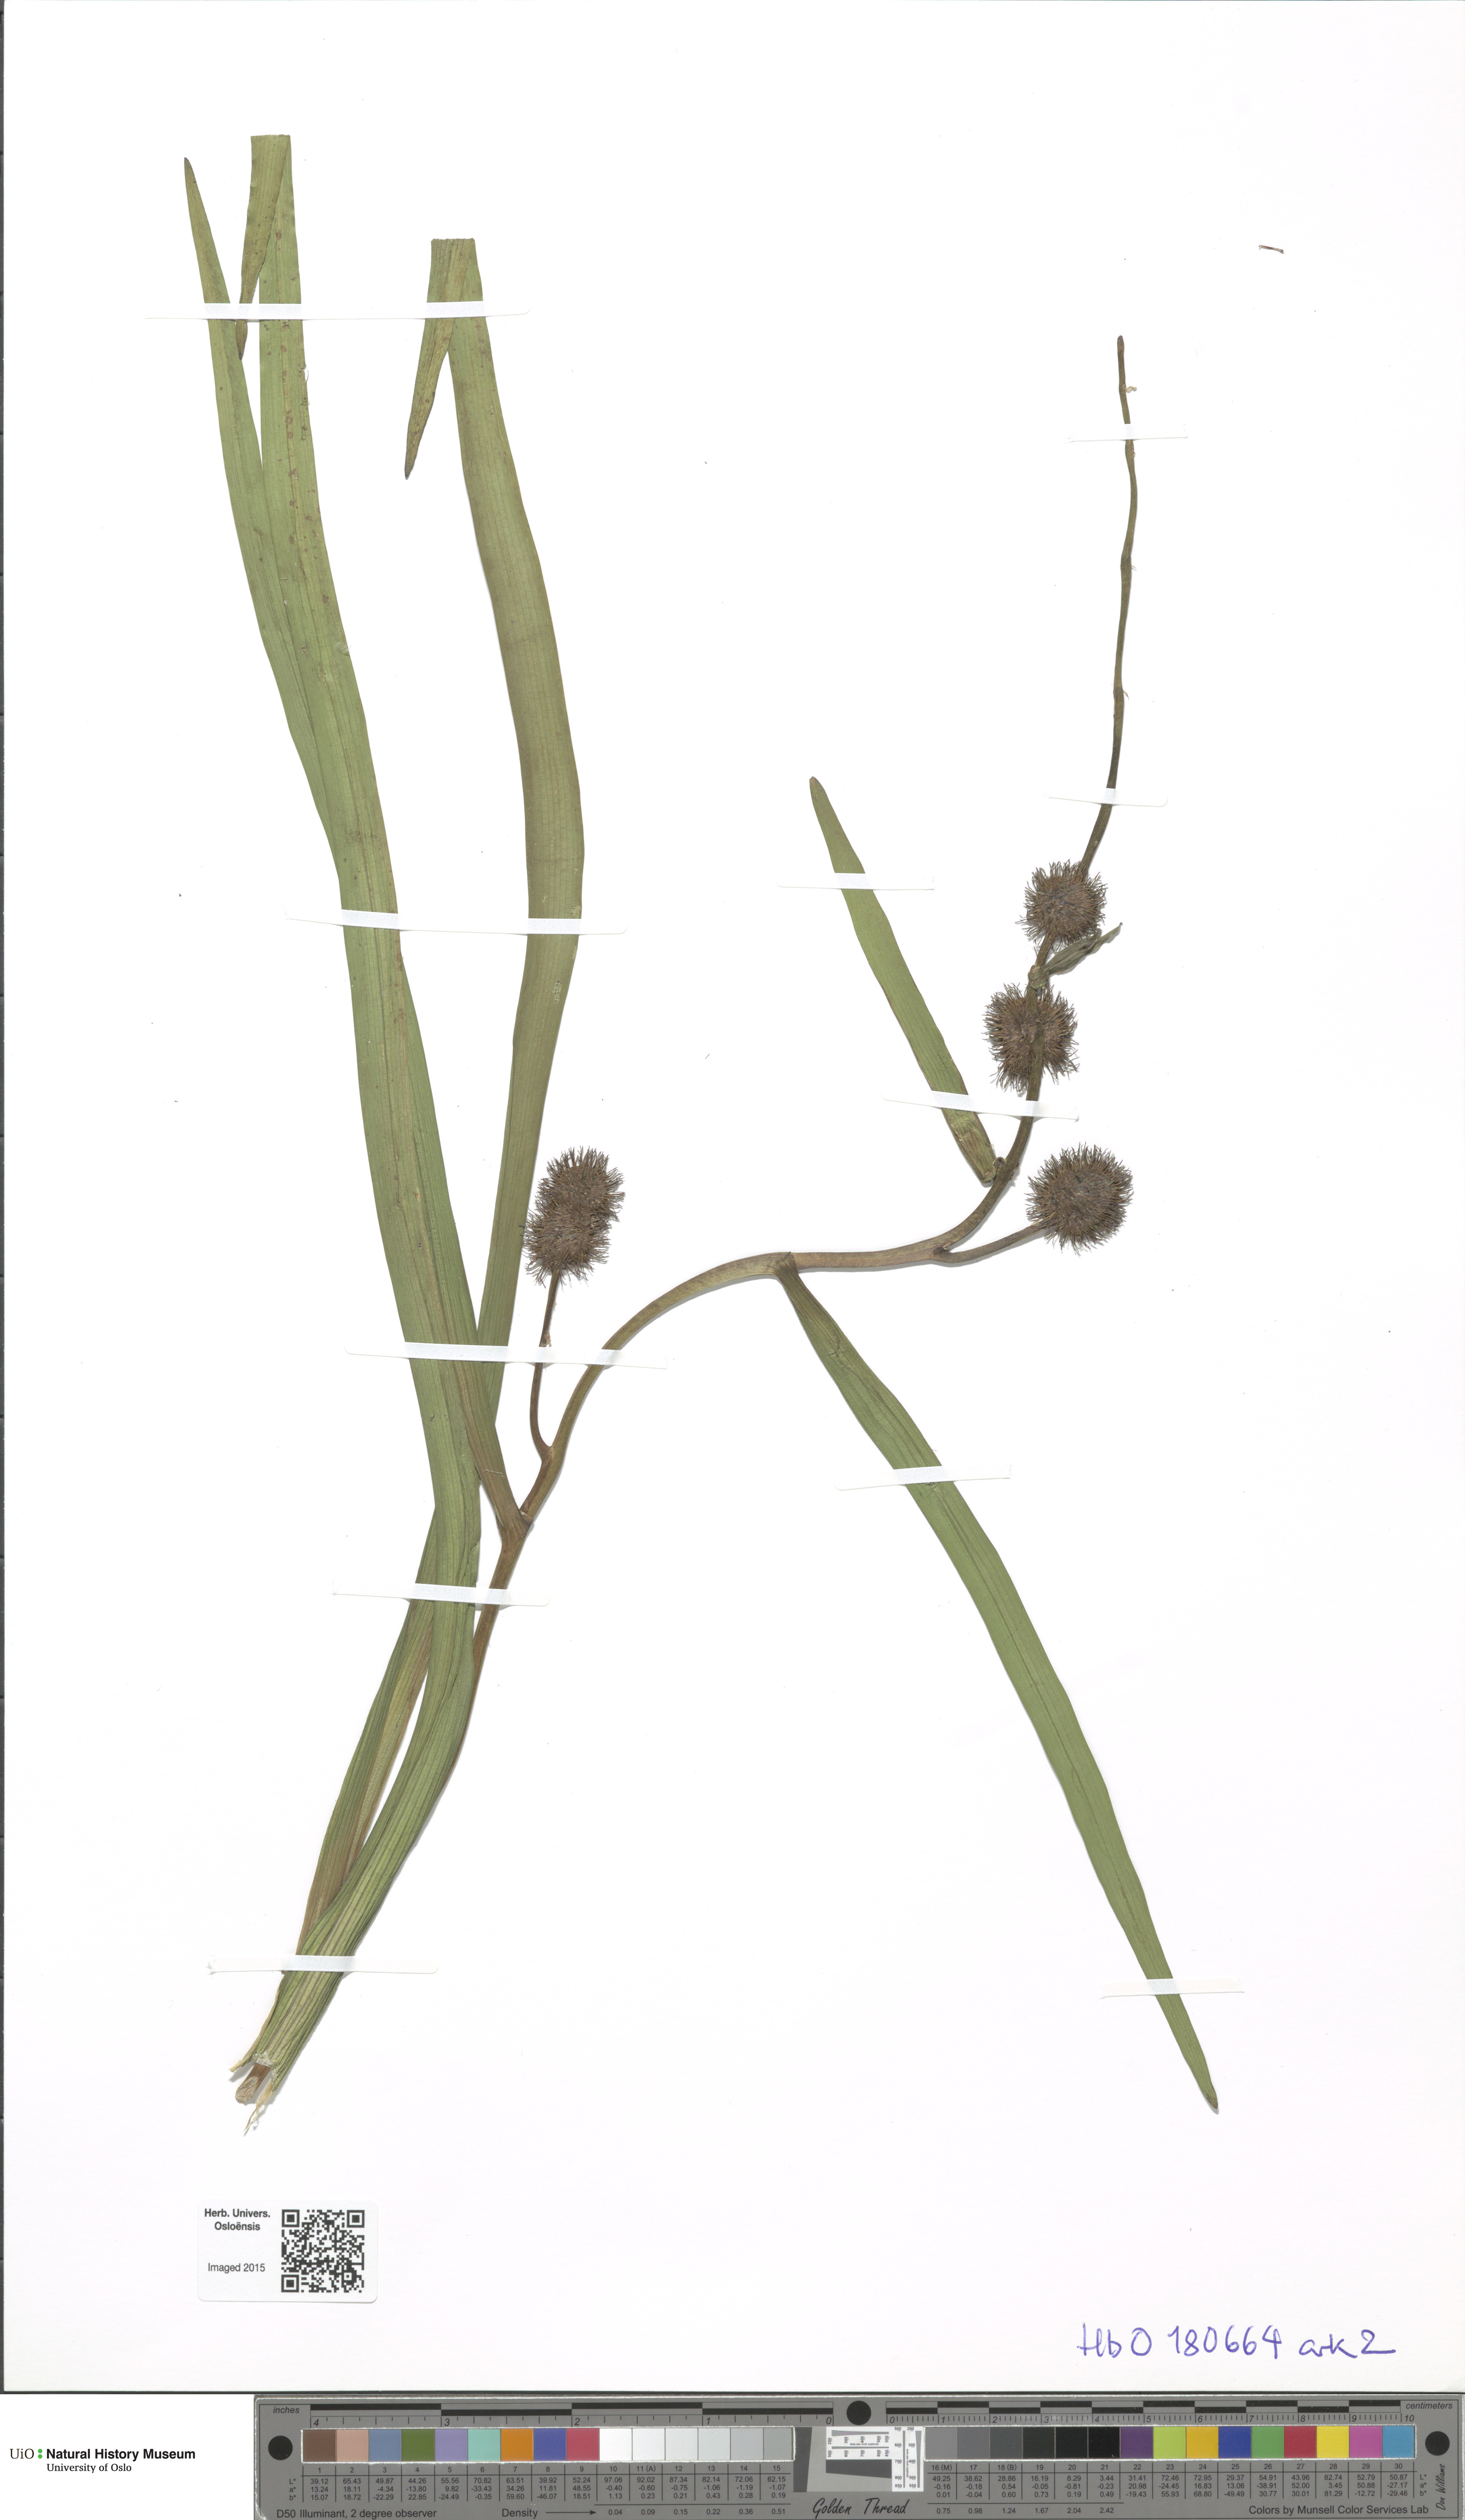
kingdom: Plantae
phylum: Tracheophyta
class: Liliopsida
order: Poales
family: Typhaceae
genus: Sparganium
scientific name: Sparganium emersum
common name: Unbranched bur-reed
